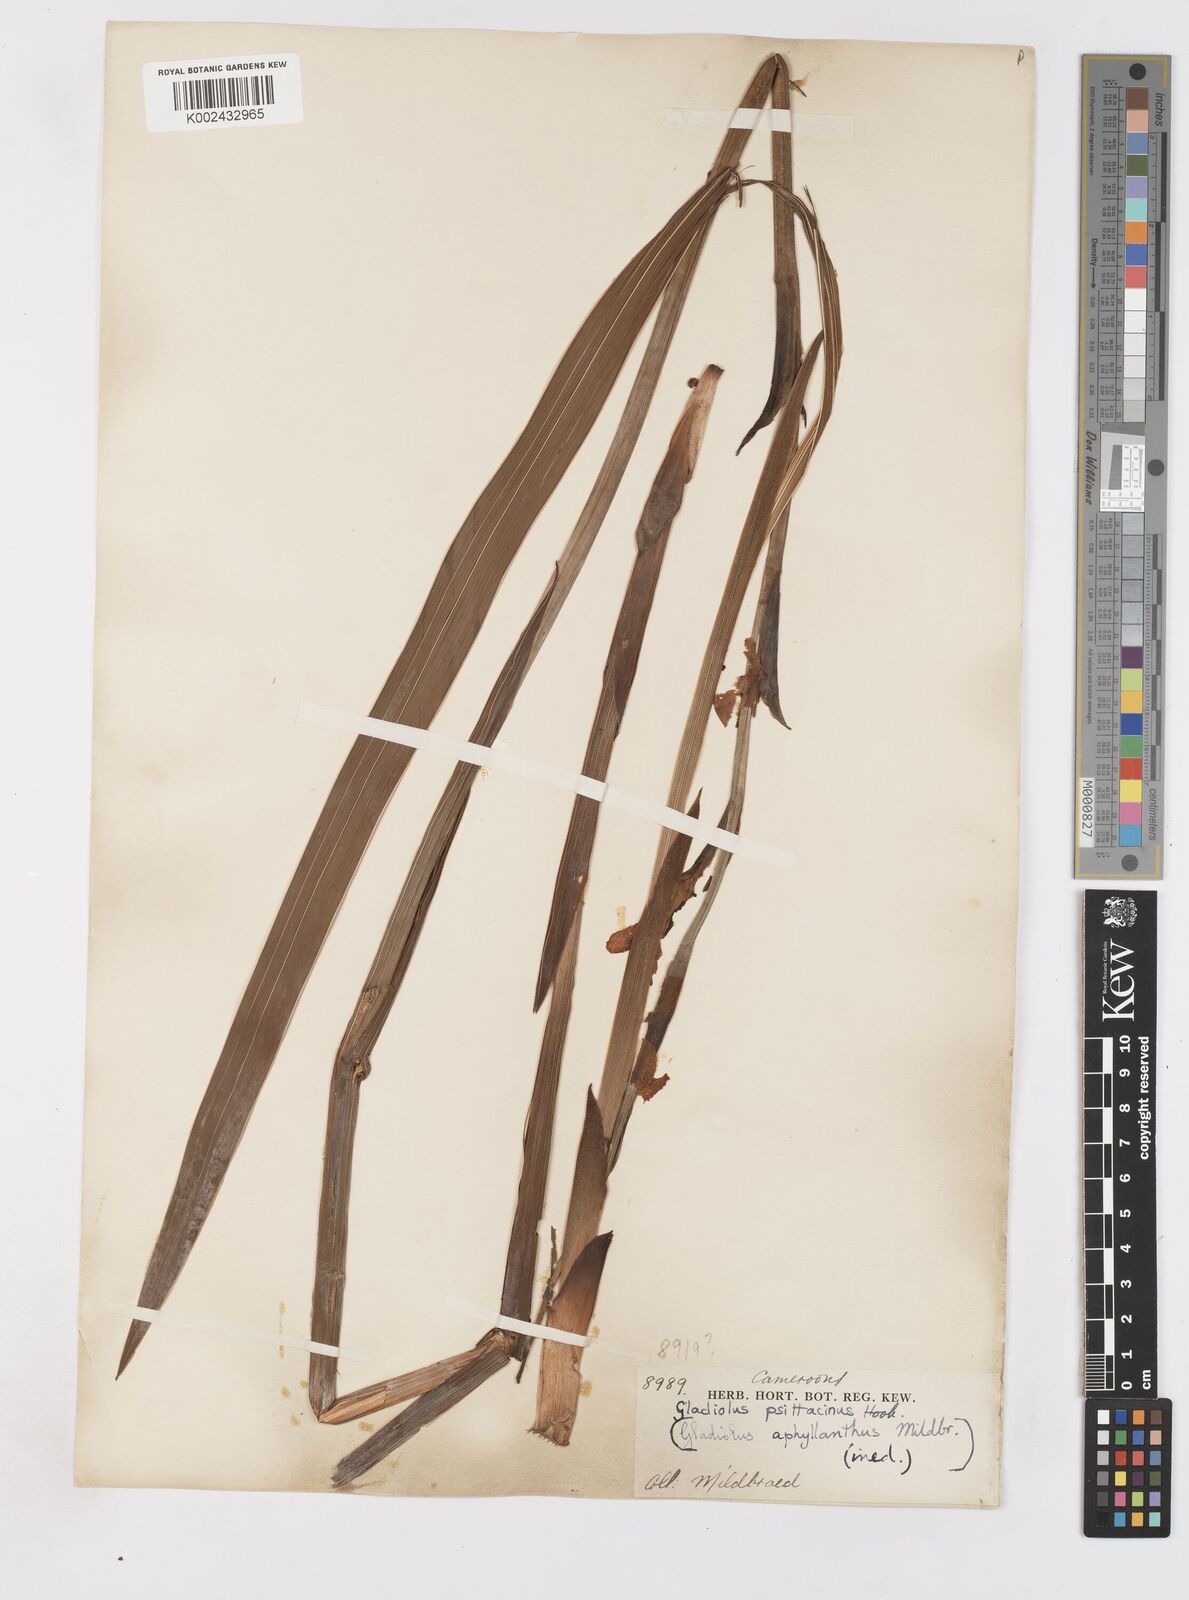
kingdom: Plantae
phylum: Tracheophyta
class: Liliopsida
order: Asparagales
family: Iridaceae
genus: Gladiolus
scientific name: Gladiolus roseolus
